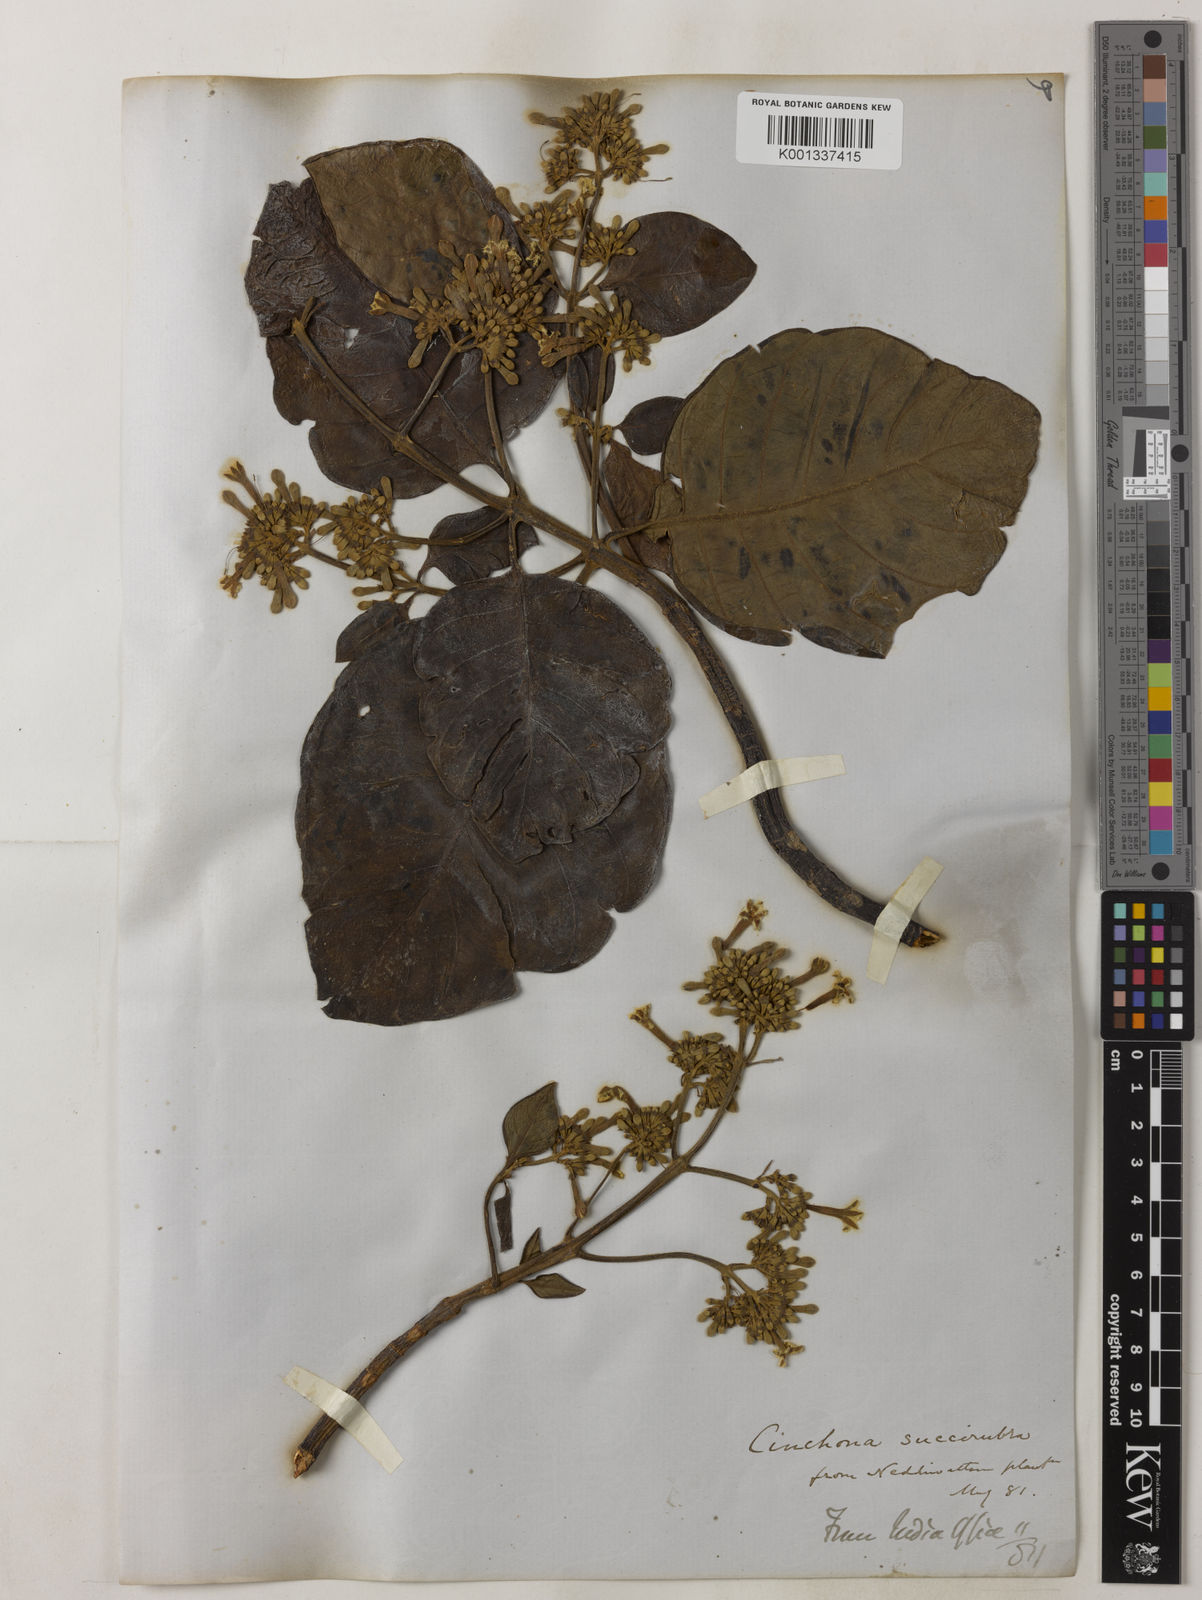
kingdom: Plantae
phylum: Tracheophyta
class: Magnoliopsida
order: Gentianales
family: Rubiaceae
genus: Cinchona
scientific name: Cinchona pubescens
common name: Quinine
